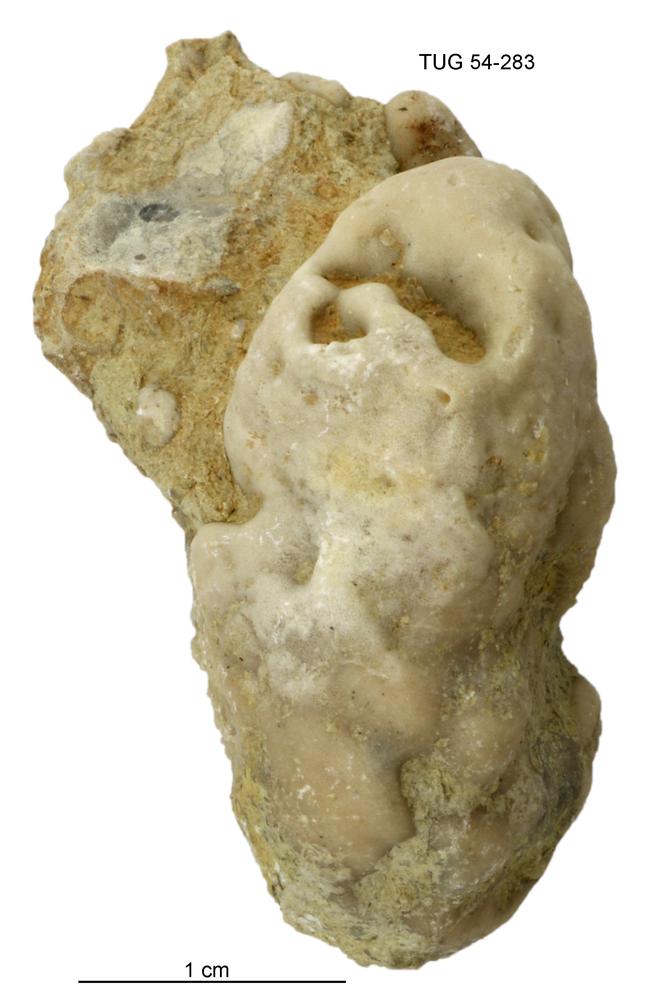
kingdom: Animalia
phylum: Porifera
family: Chaetetidae
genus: Solenopora
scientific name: Solenopora
